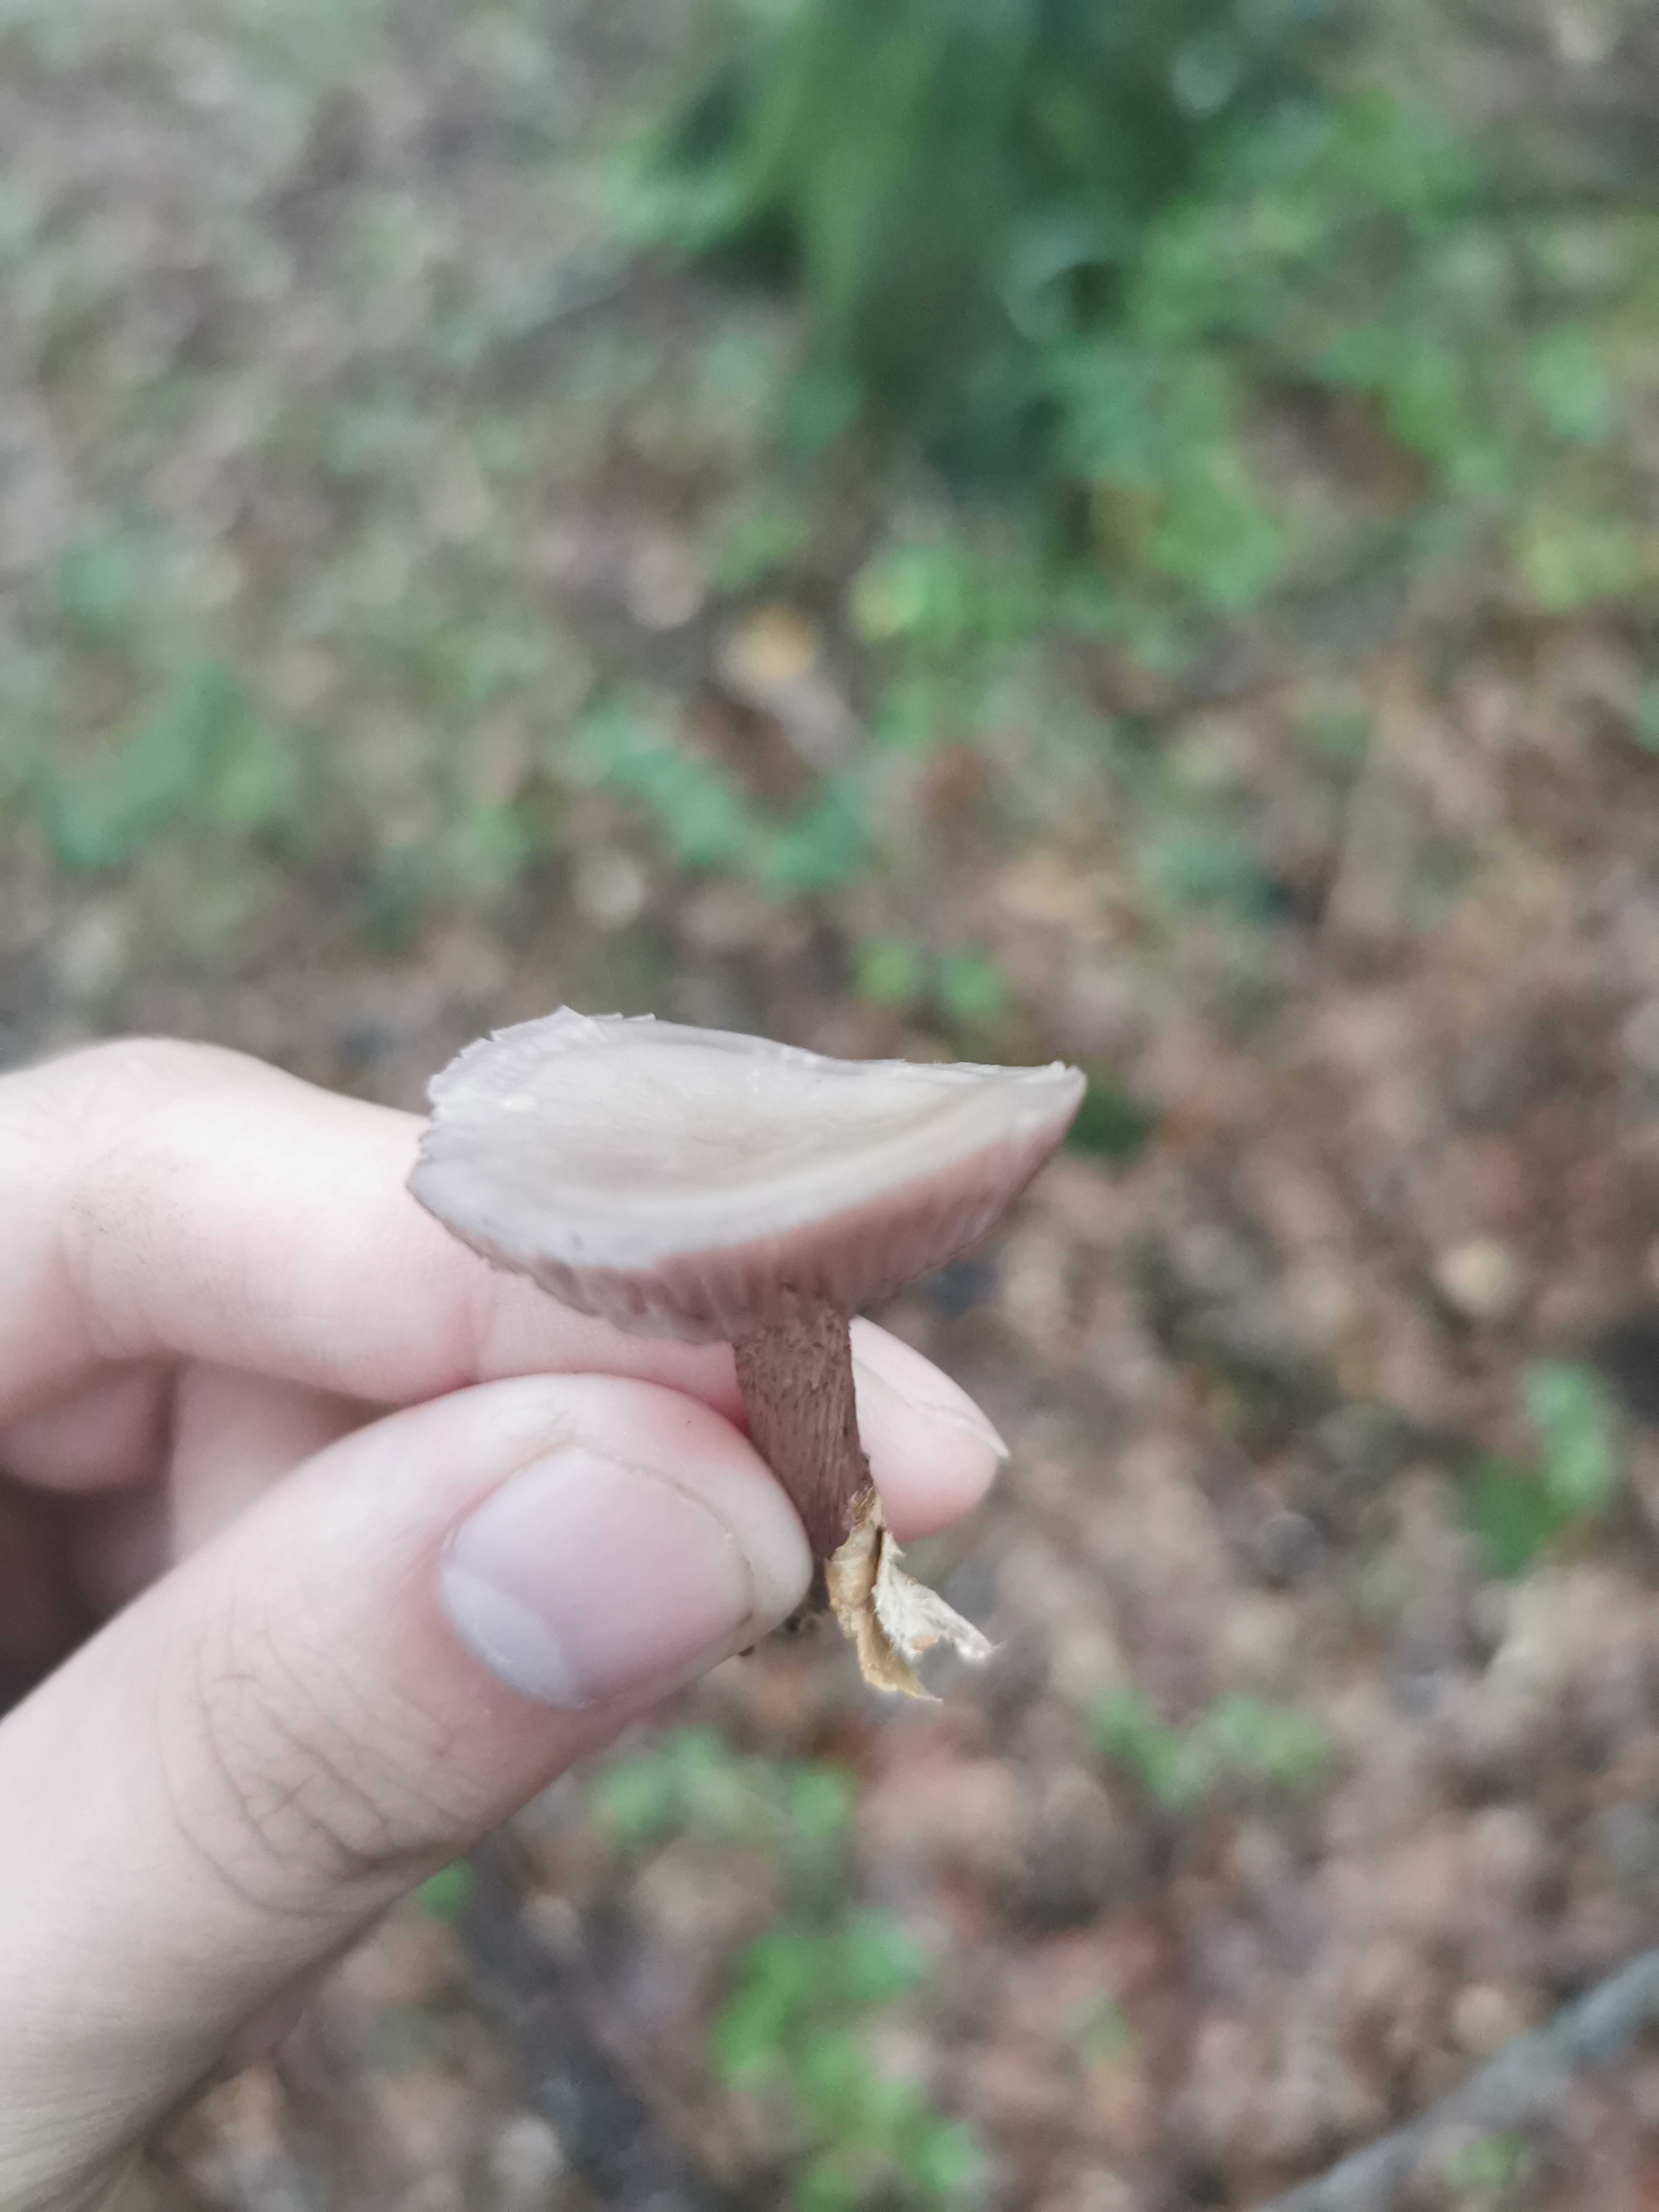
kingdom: Fungi
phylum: Basidiomycota
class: Agaricomycetes
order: Agaricales
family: Mycenaceae
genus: Mycena
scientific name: Mycena pelianthina
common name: mørkbladet huesvamp
